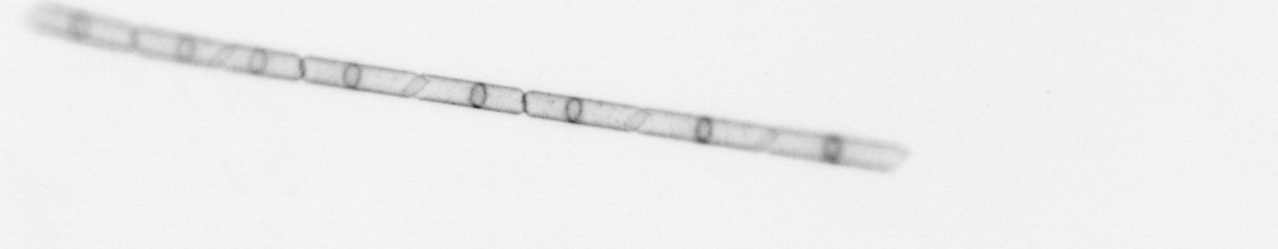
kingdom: Chromista
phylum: Ochrophyta
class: Bacillariophyceae
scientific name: Bacillariophyceae
